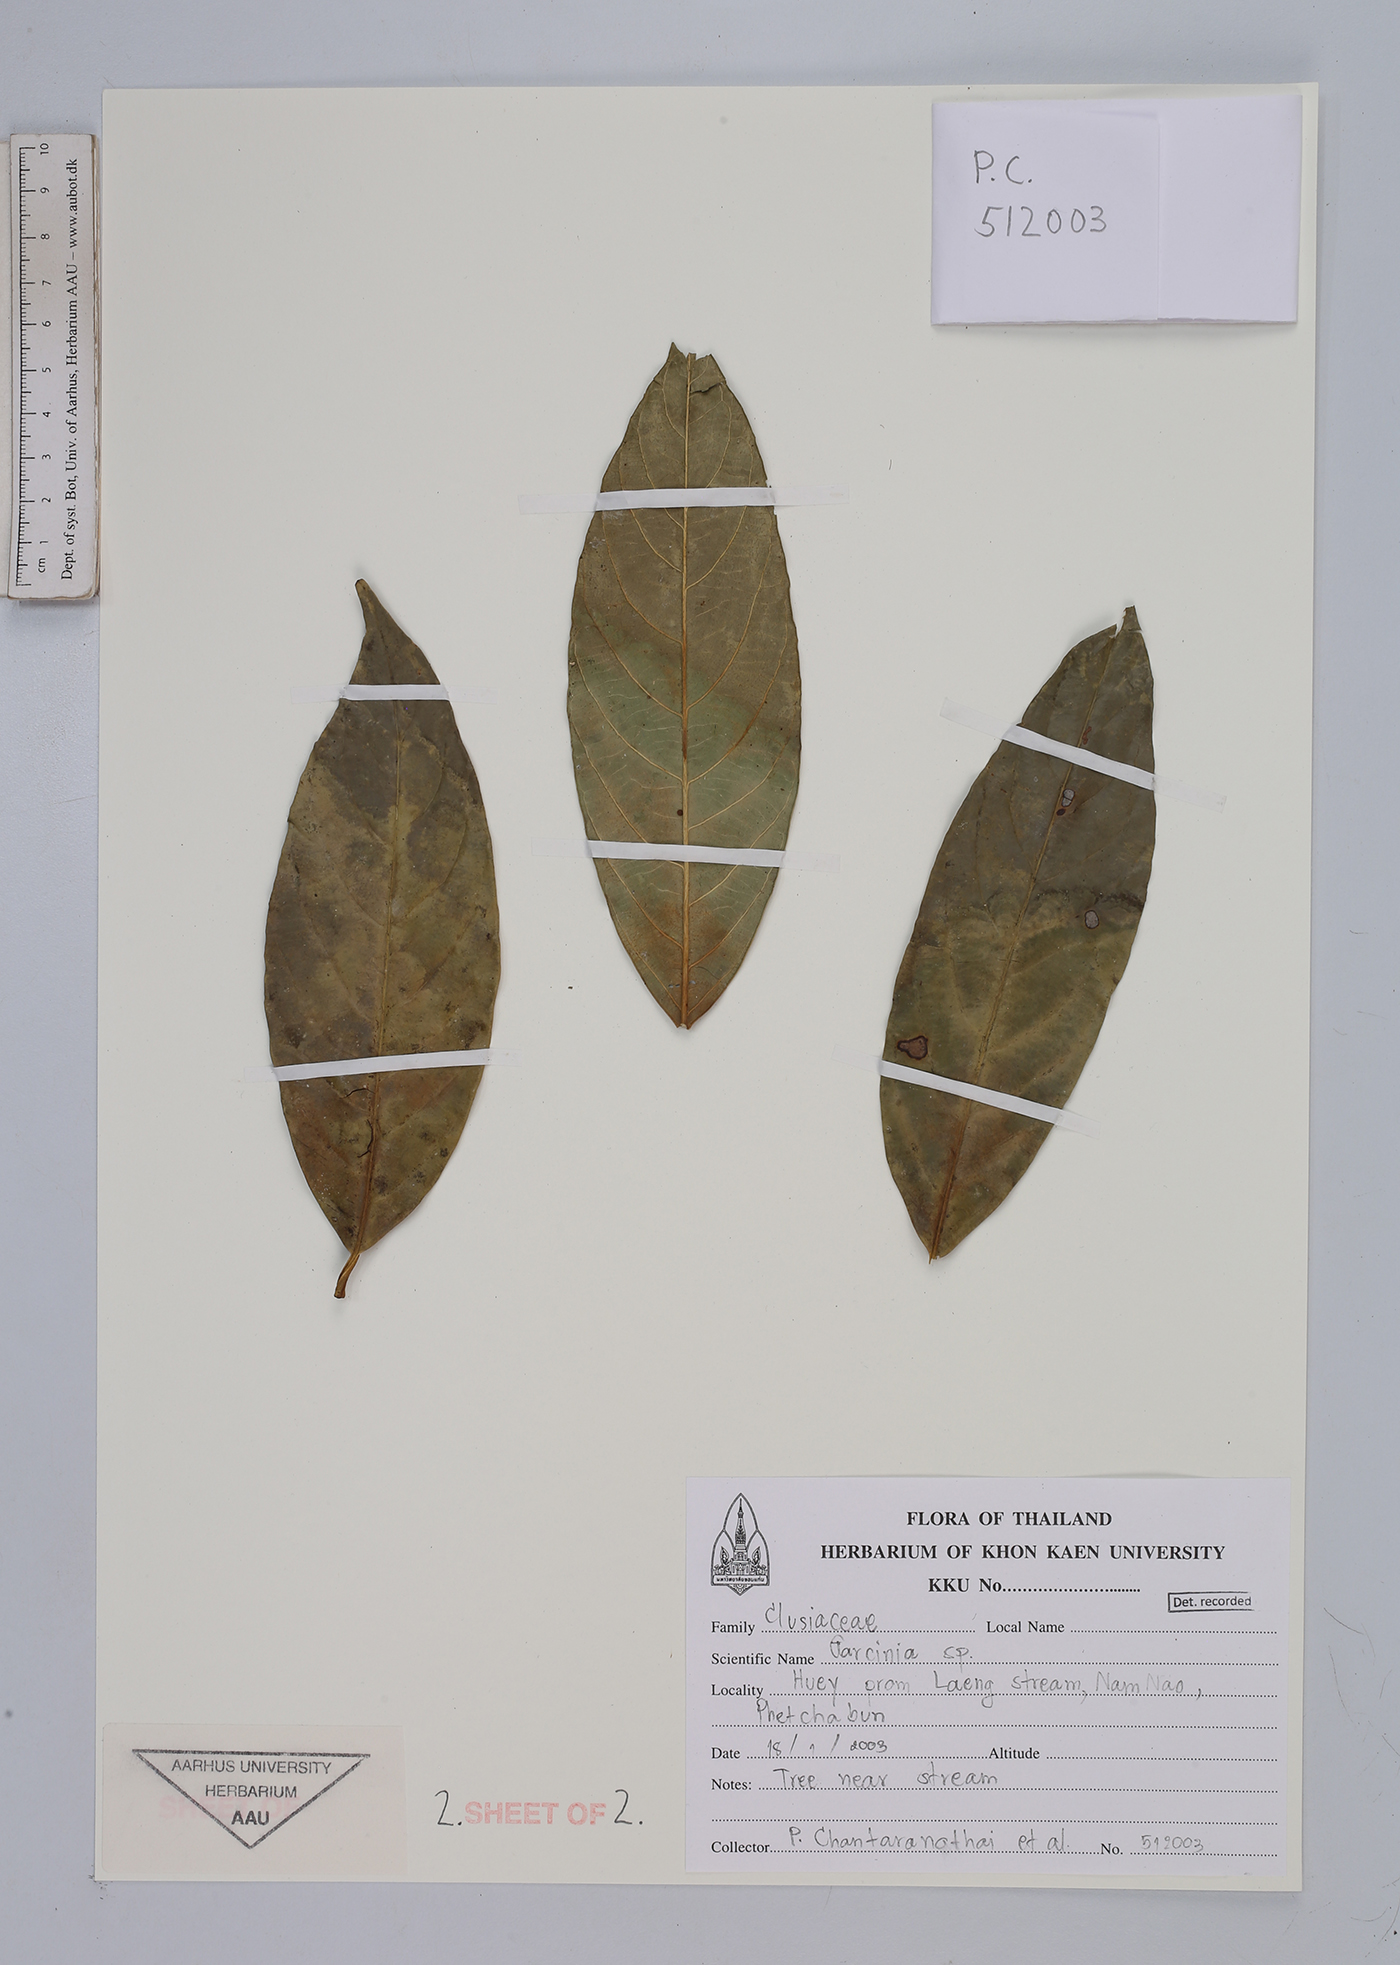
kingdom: Plantae
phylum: Tracheophyta
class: Magnoliopsida
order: Malpighiales
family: Clusiaceae
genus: Garcinia
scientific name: Garcinia
